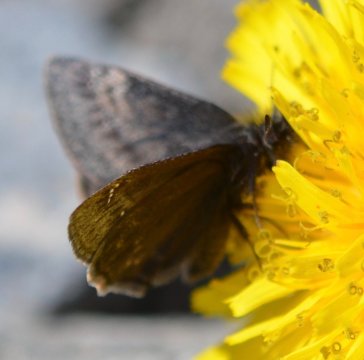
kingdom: Animalia
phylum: Arthropoda
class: Insecta
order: Lepidoptera
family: Hesperiidae
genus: Gesta
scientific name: Gesta
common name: Persius Duskywing
